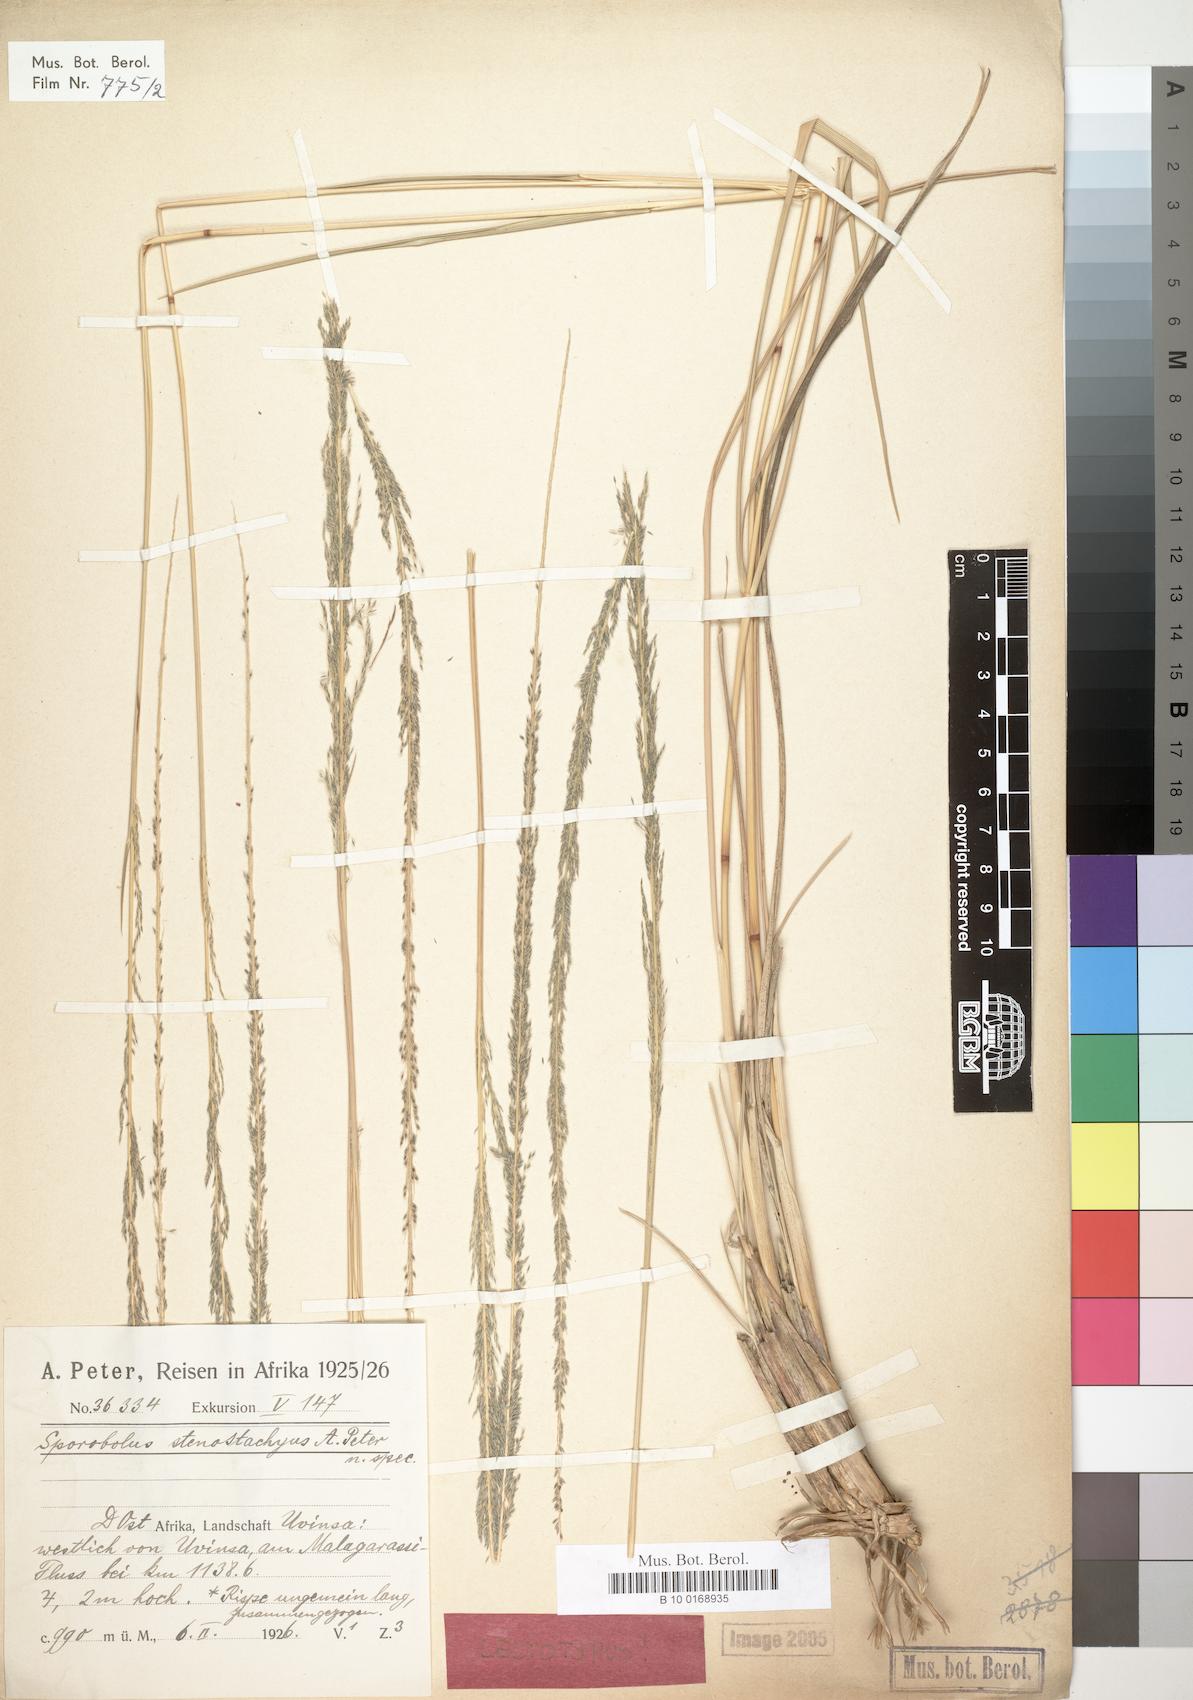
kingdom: Plantae
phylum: Tracheophyta
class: Liliopsida
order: Poales
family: Poaceae
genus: Sporobolus
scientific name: Sporobolus consimilis
